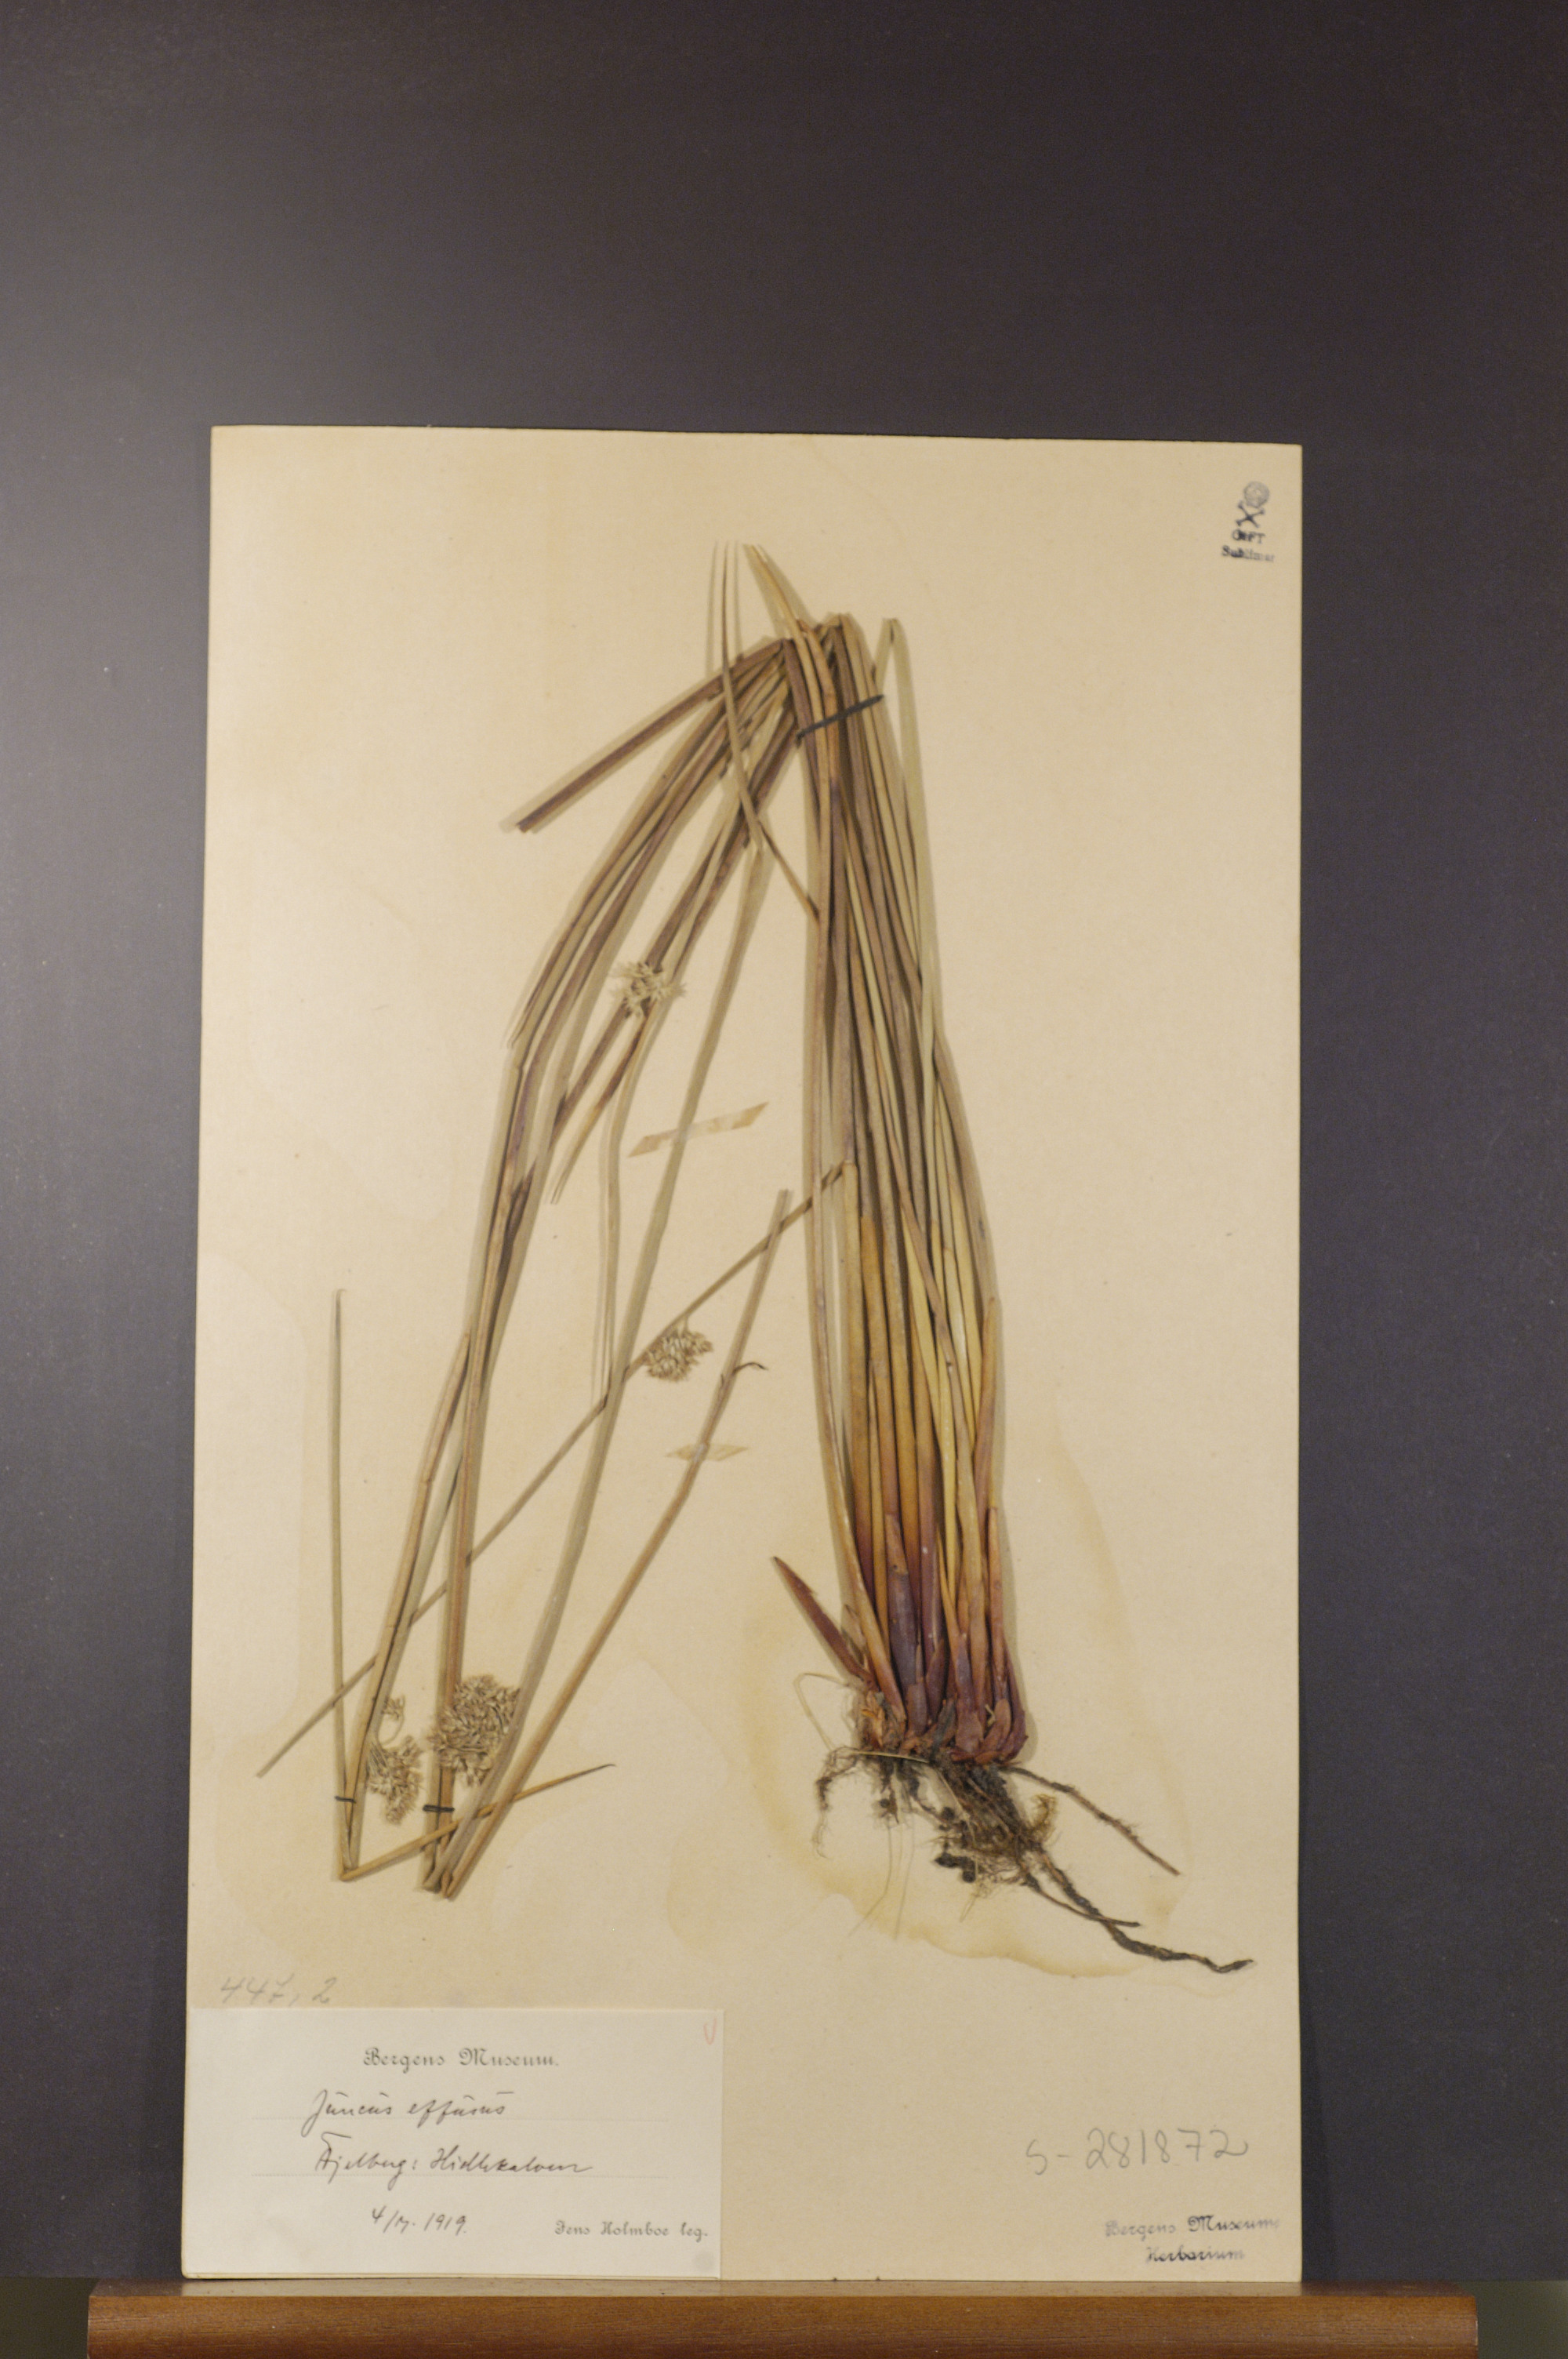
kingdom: Plantae
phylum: Tracheophyta
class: Liliopsida
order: Poales
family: Juncaceae
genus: Juncus
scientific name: Juncus effusus
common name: Soft rush
